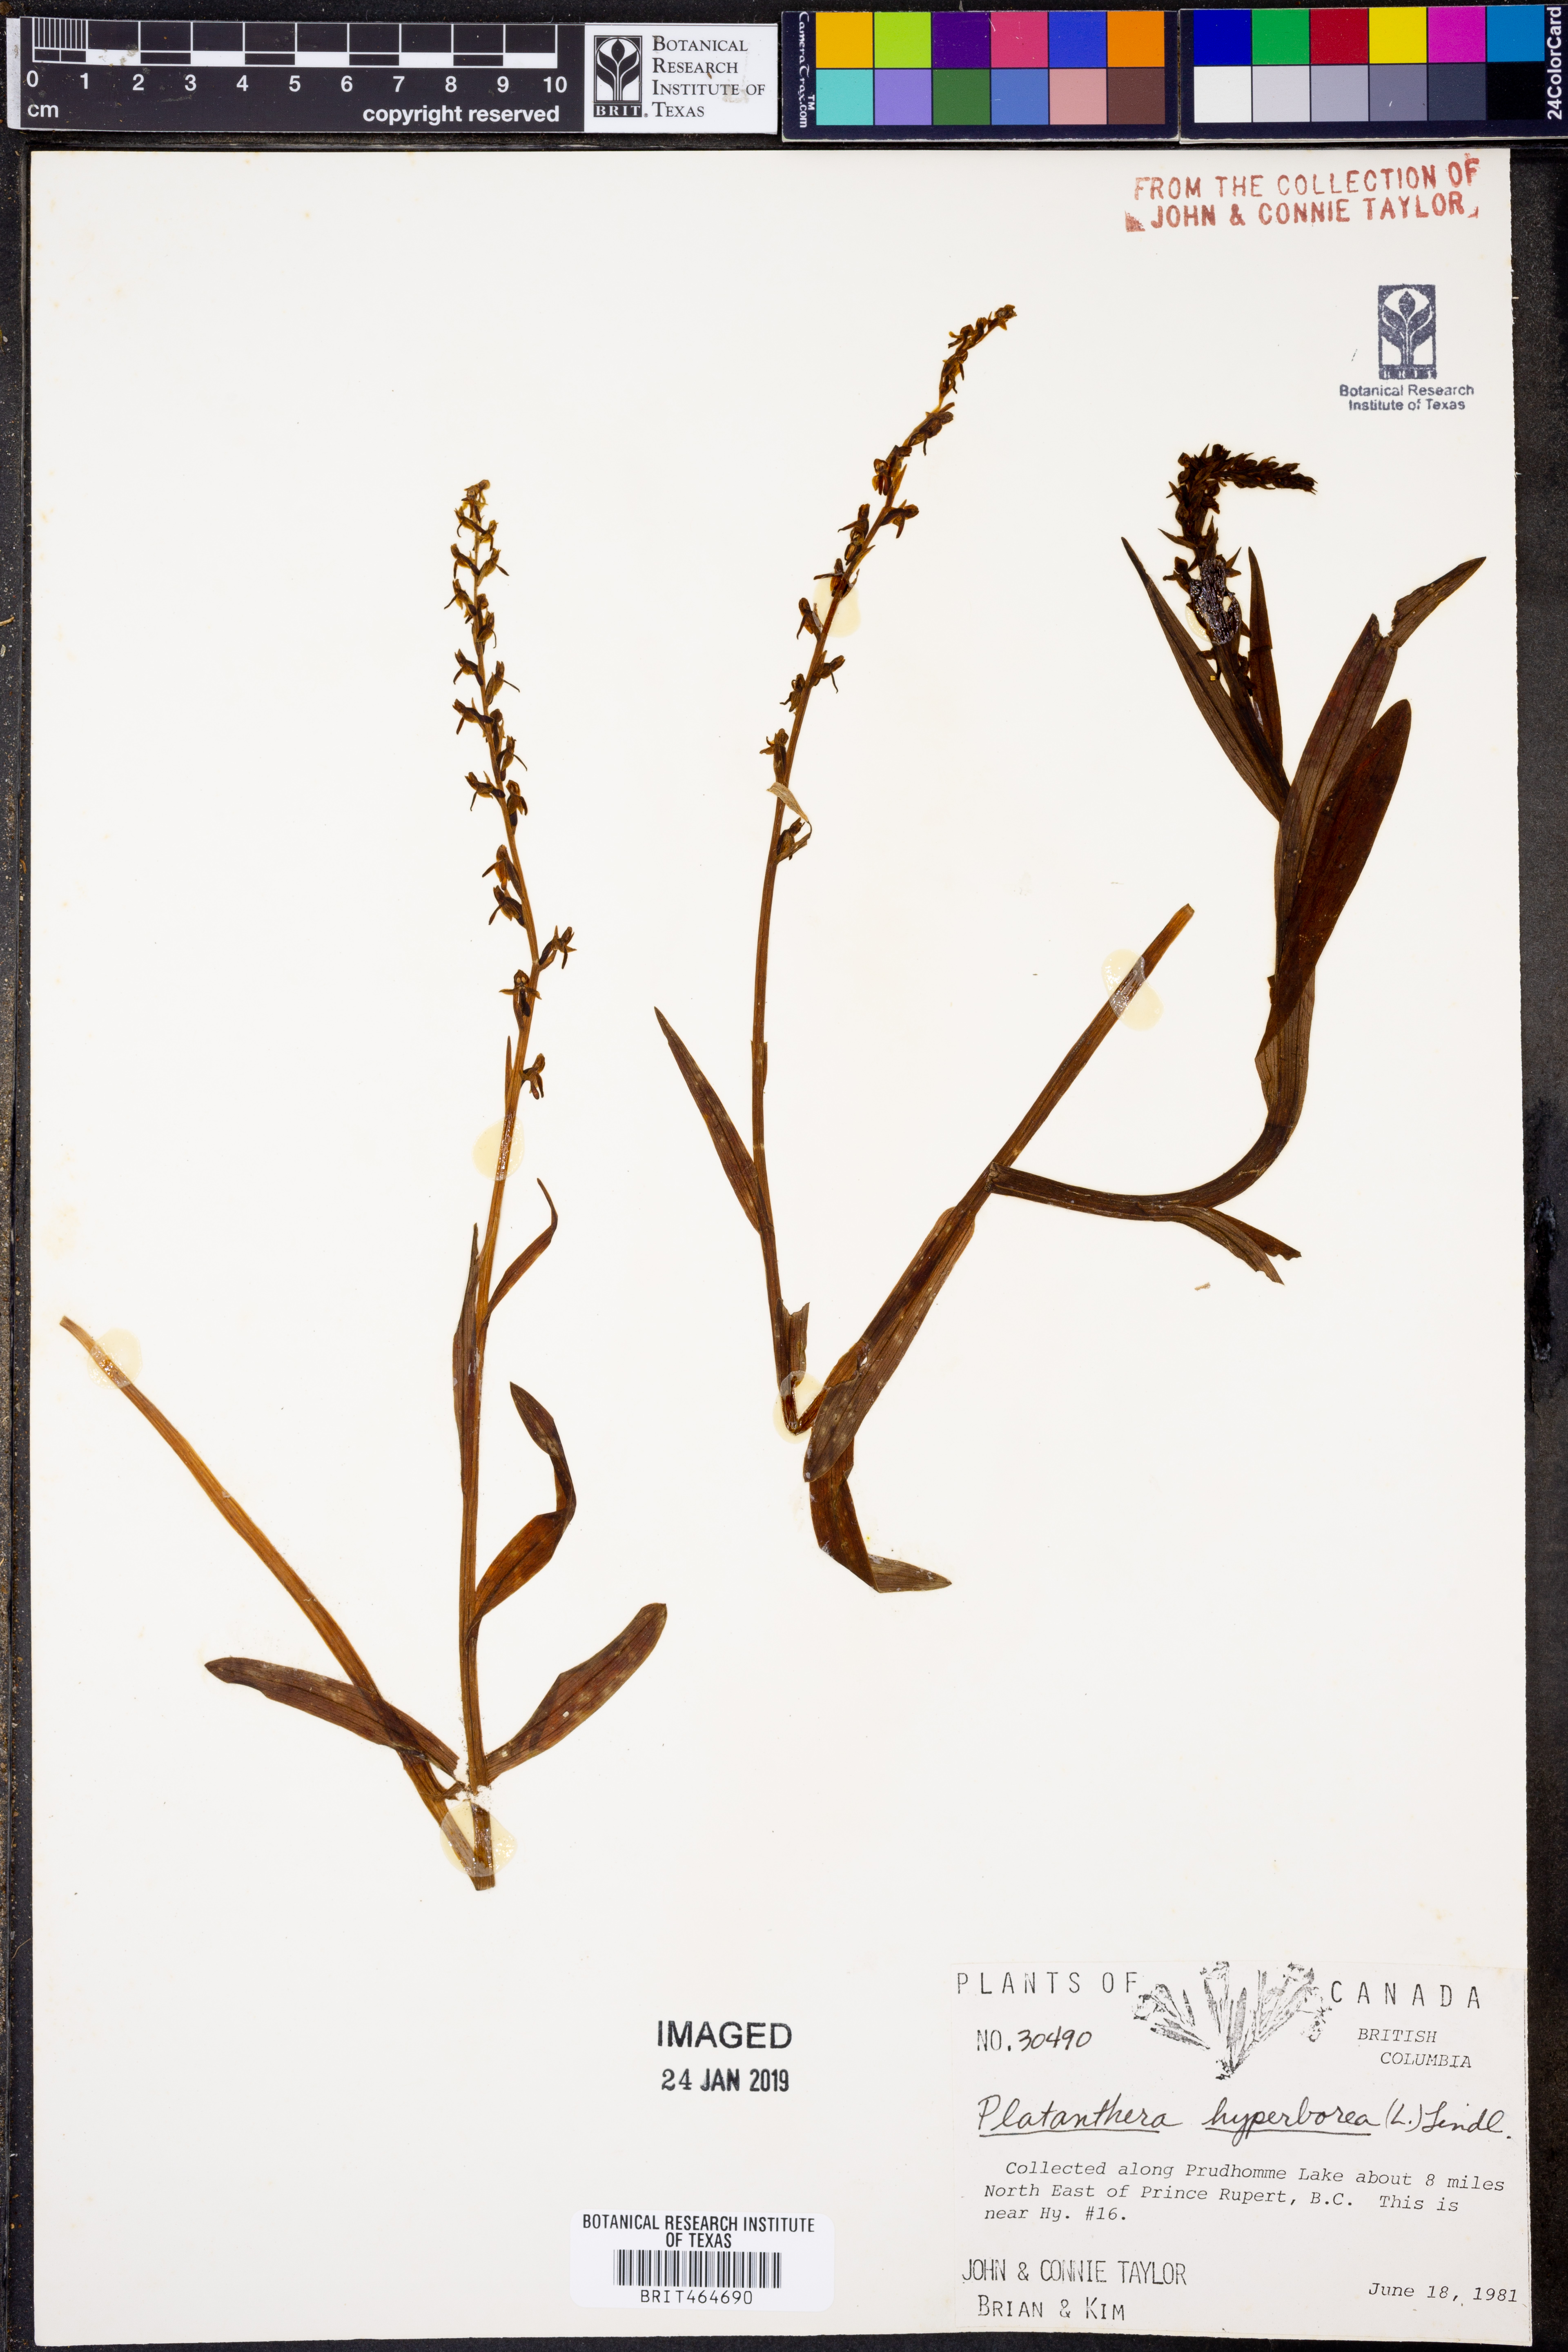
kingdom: Plantae
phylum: Tracheophyta
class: Liliopsida
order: Asparagales
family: Orchidaceae
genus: Platanthera
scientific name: Platanthera hyperborea
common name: Northern green orchid
